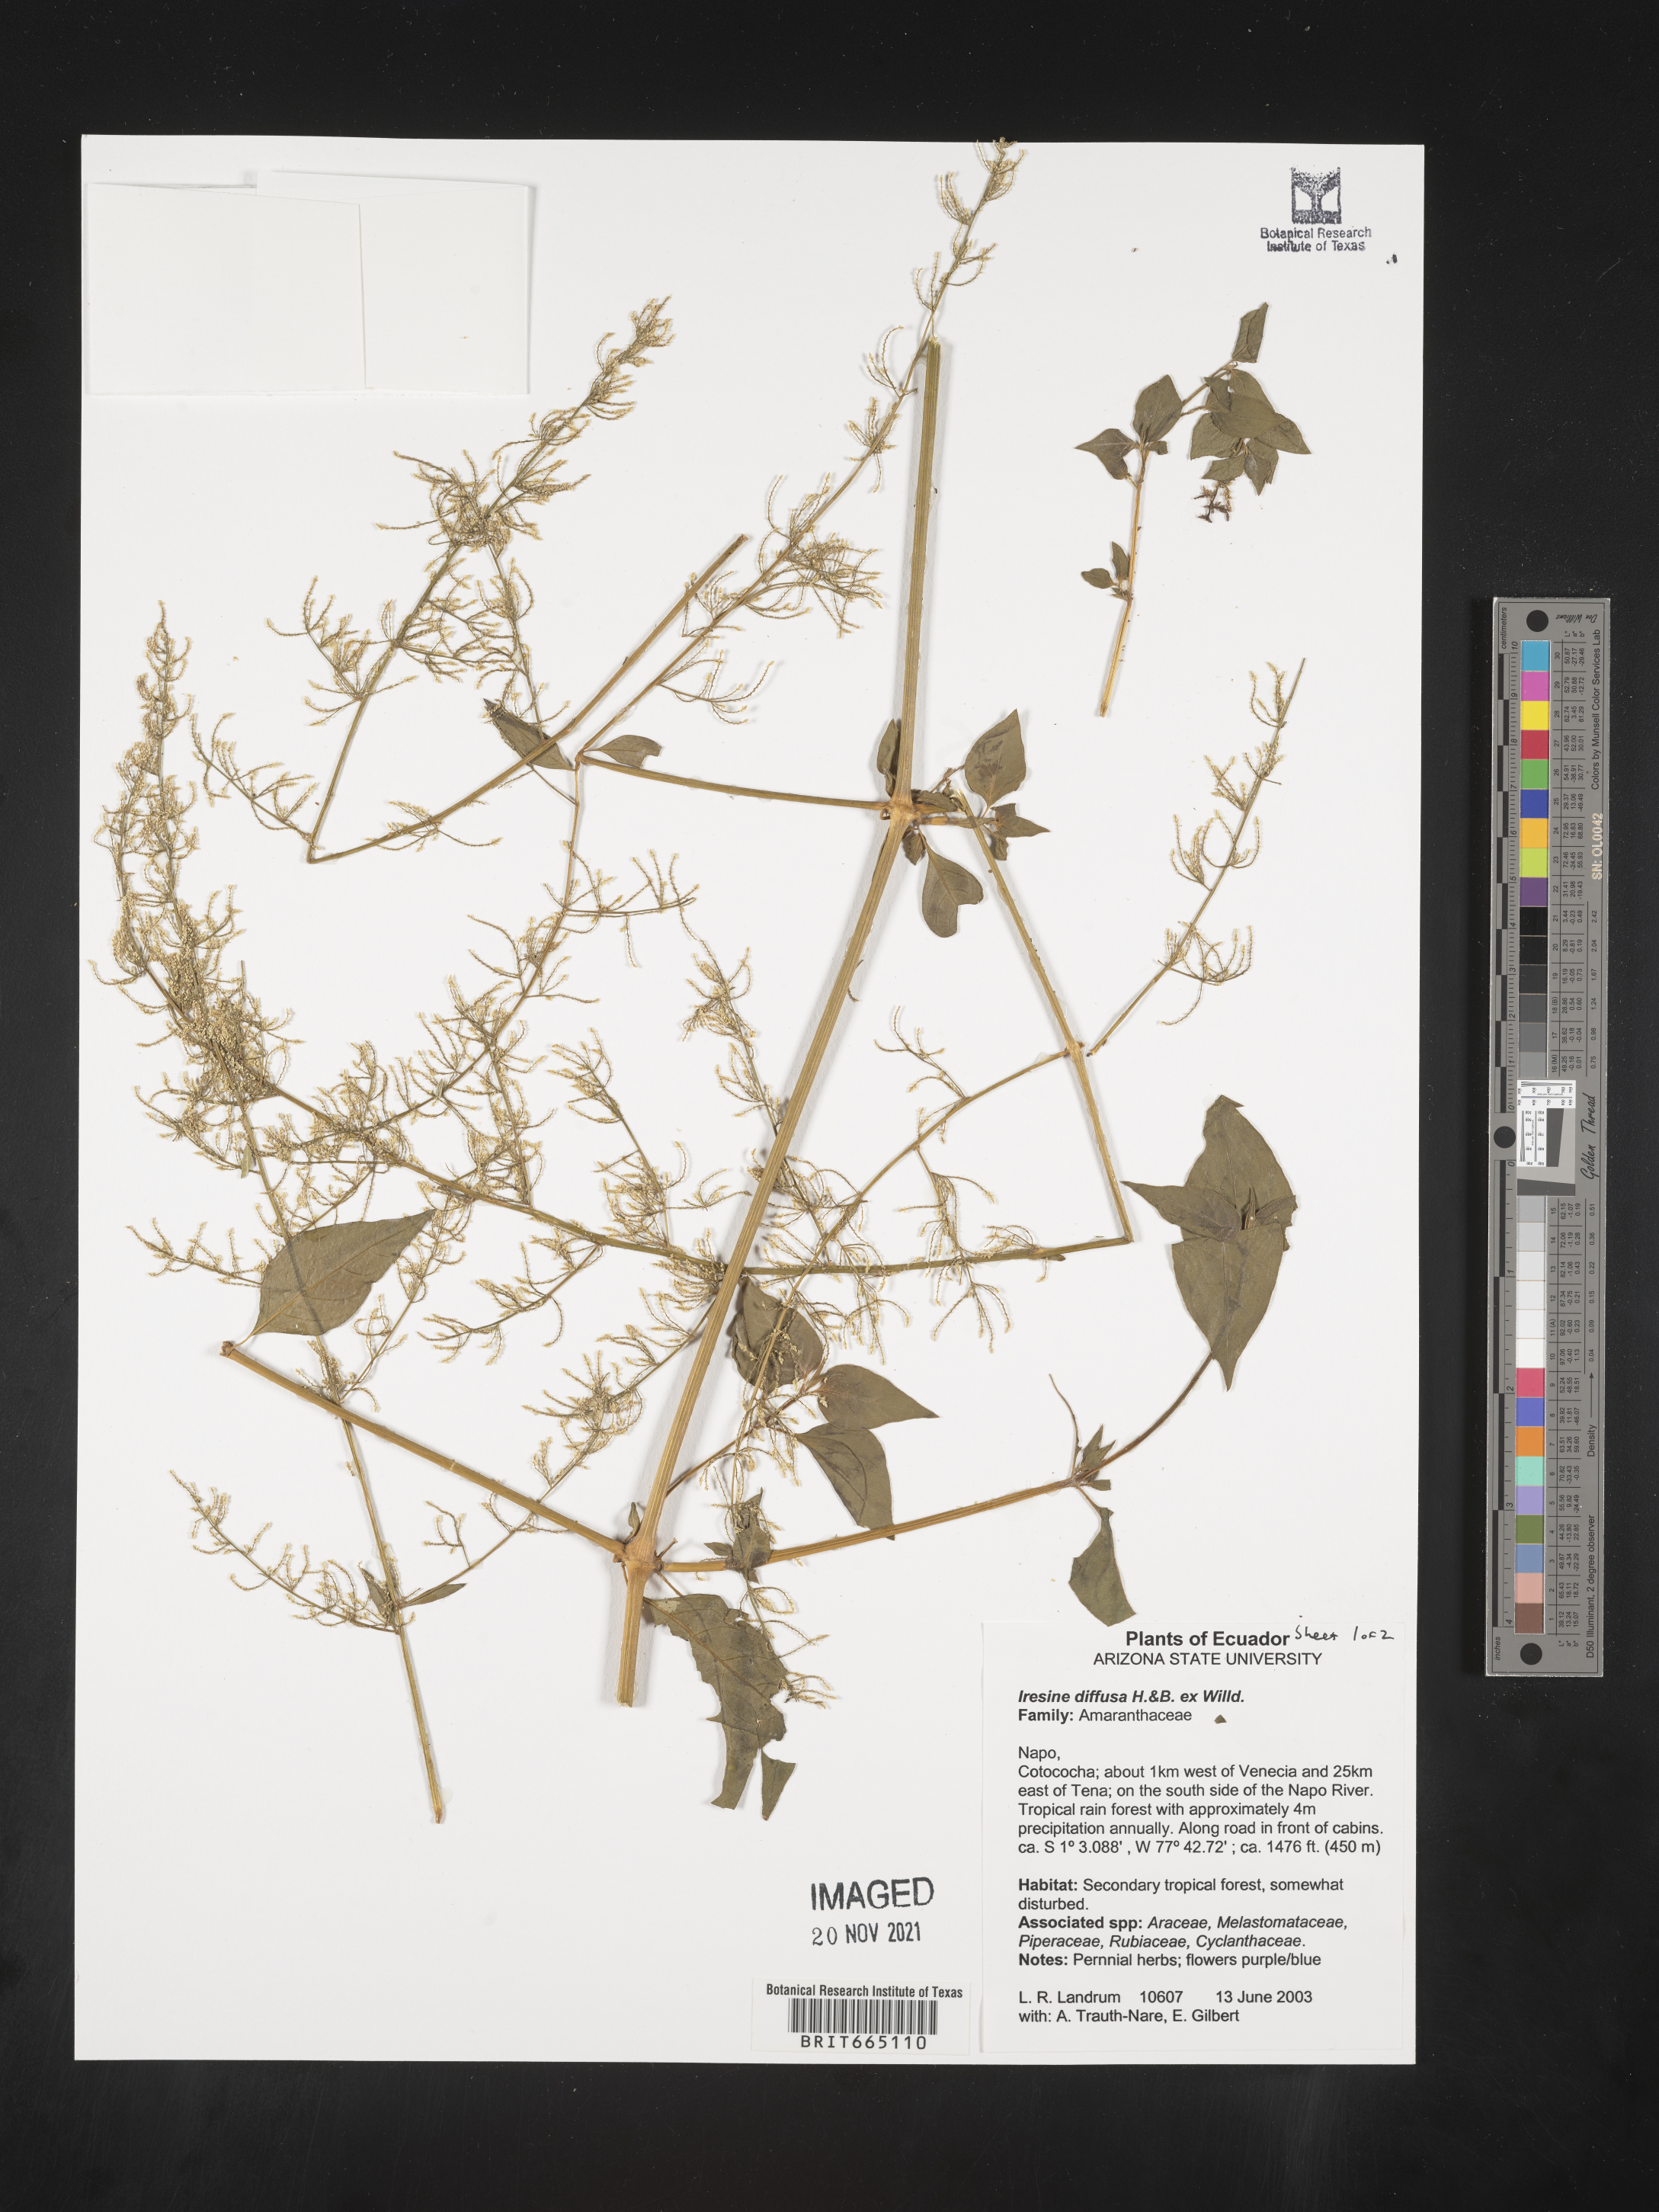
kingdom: Plantae
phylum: Tracheophyta
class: Magnoliopsida
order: Caryophyllales
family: Amaranthaceae
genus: Iresine
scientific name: Iresine
